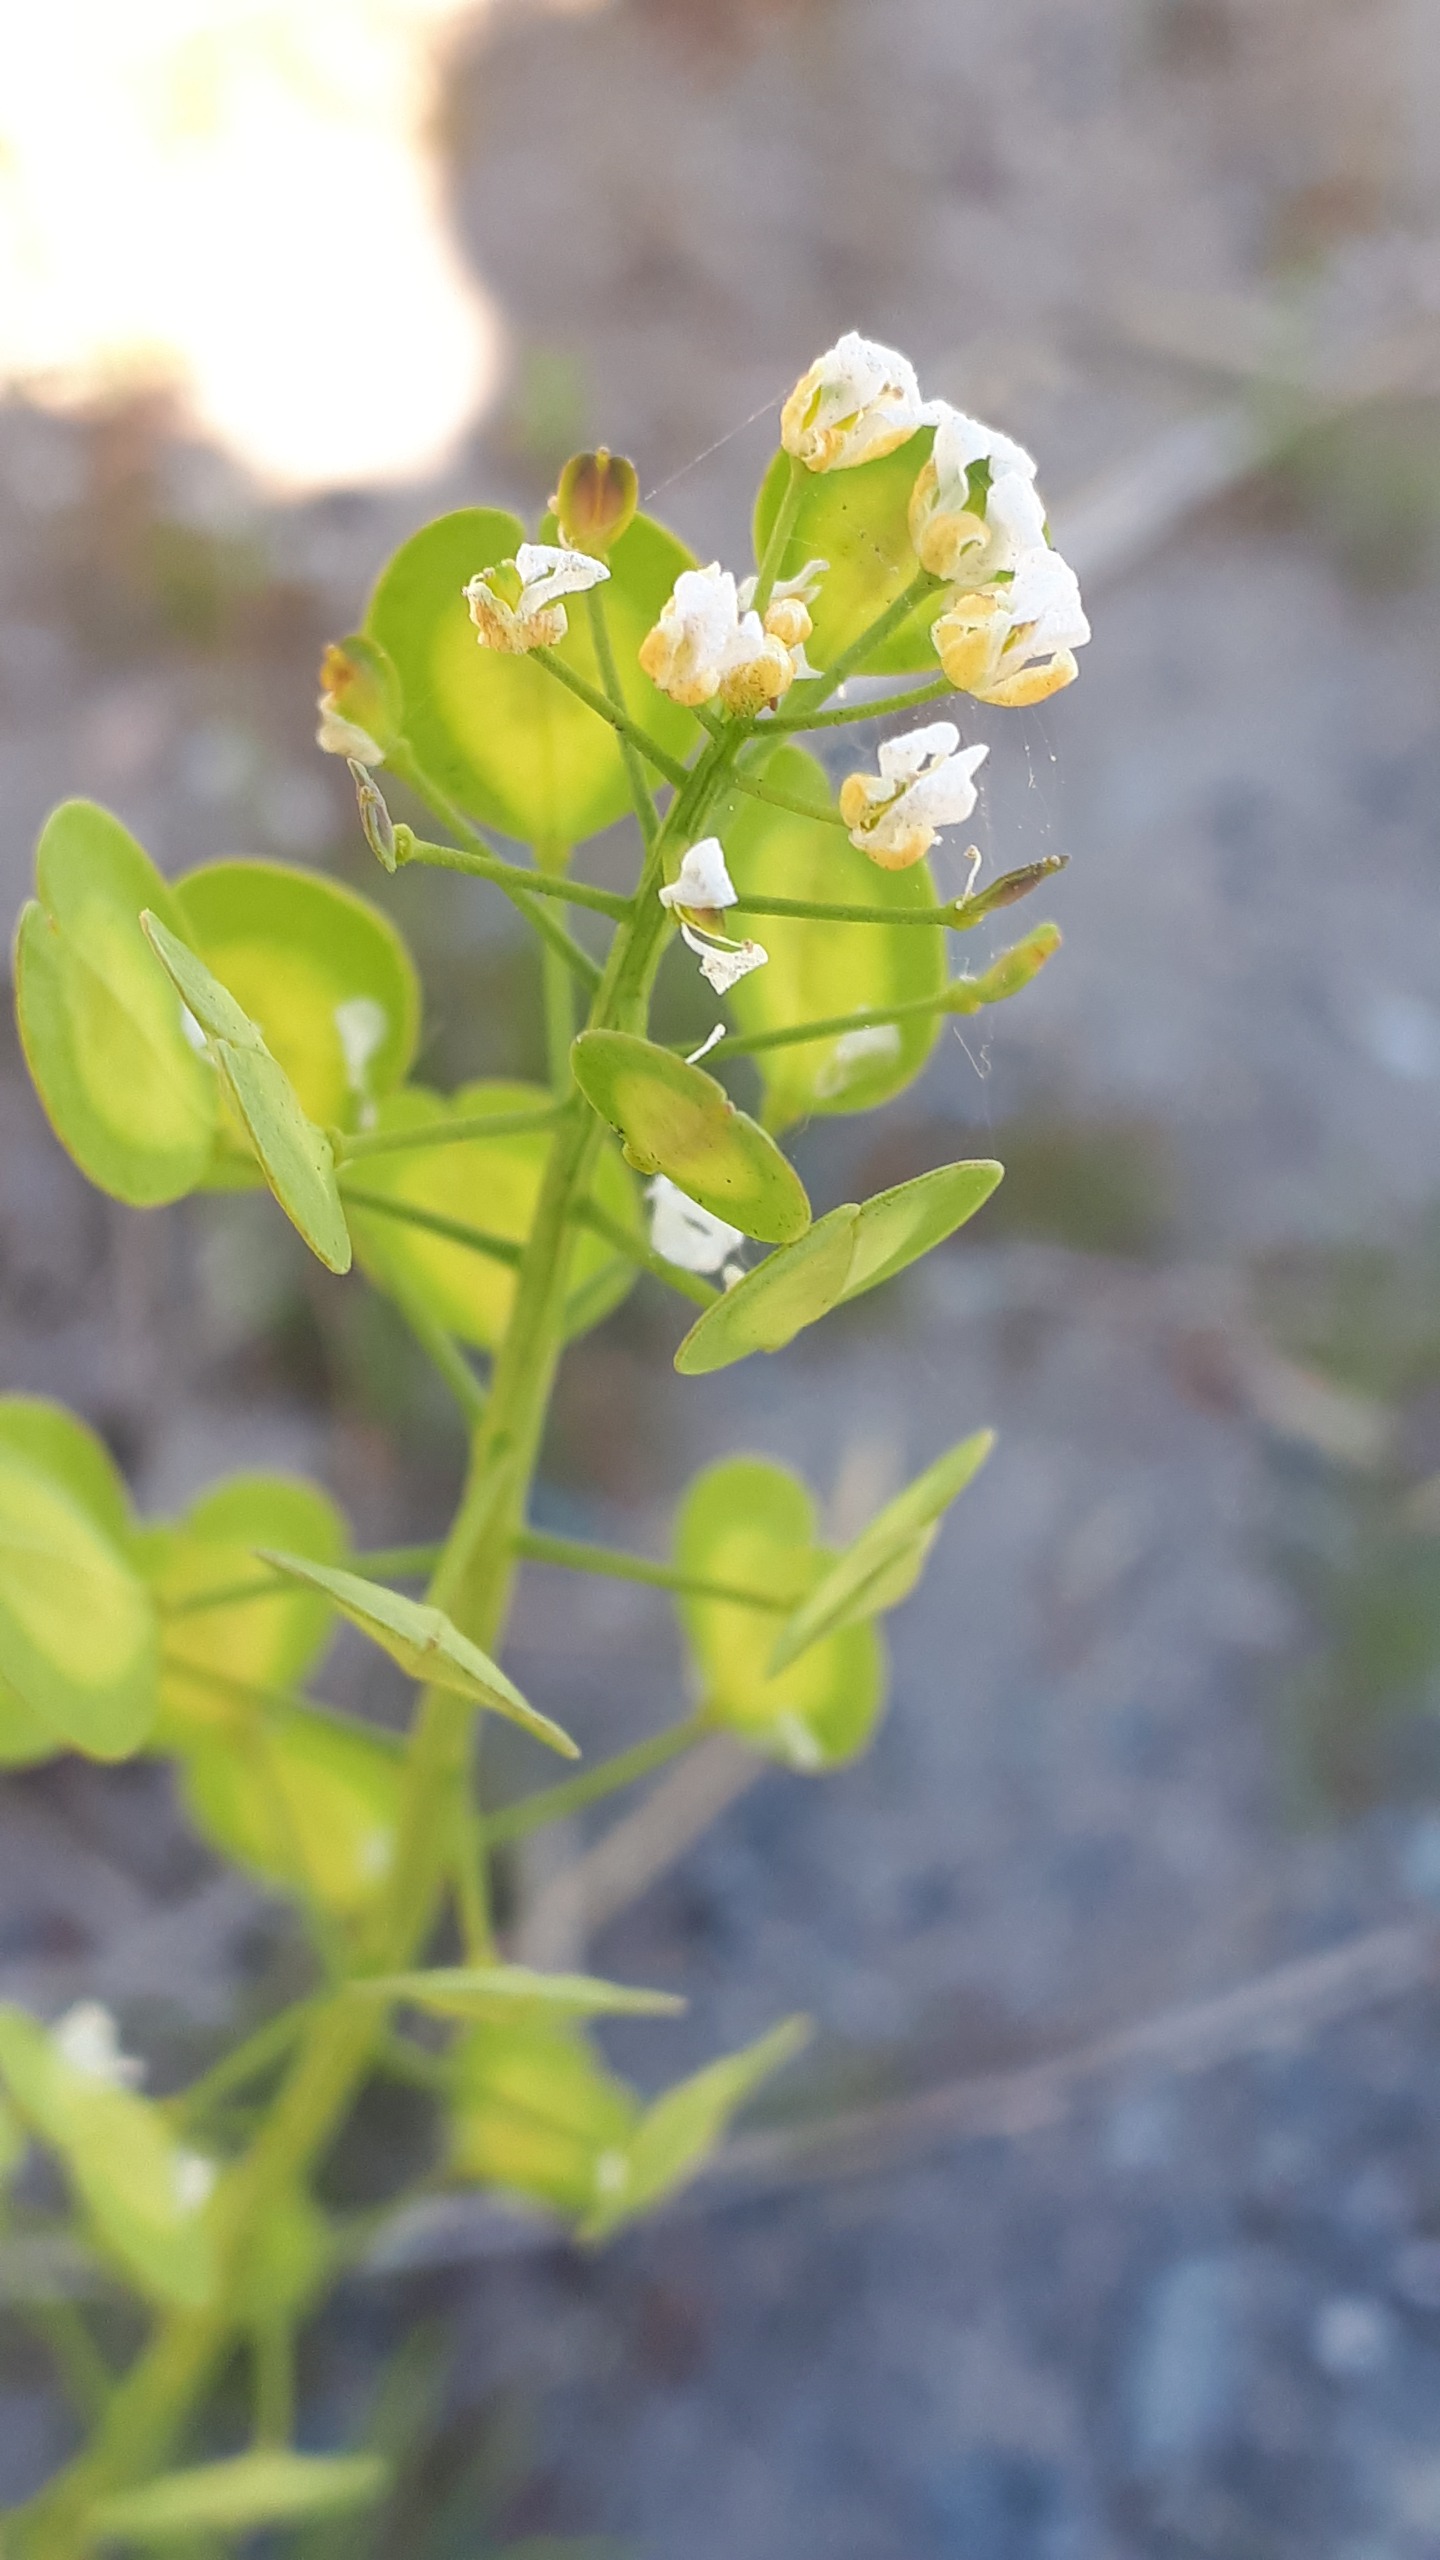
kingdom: Plantae
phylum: Tracheophyta
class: Magnoliopsida
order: Brassicales
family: Brassicaceae
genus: Thlaspi
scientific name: Thlaspi arvense
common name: Almindelig pengeurt
